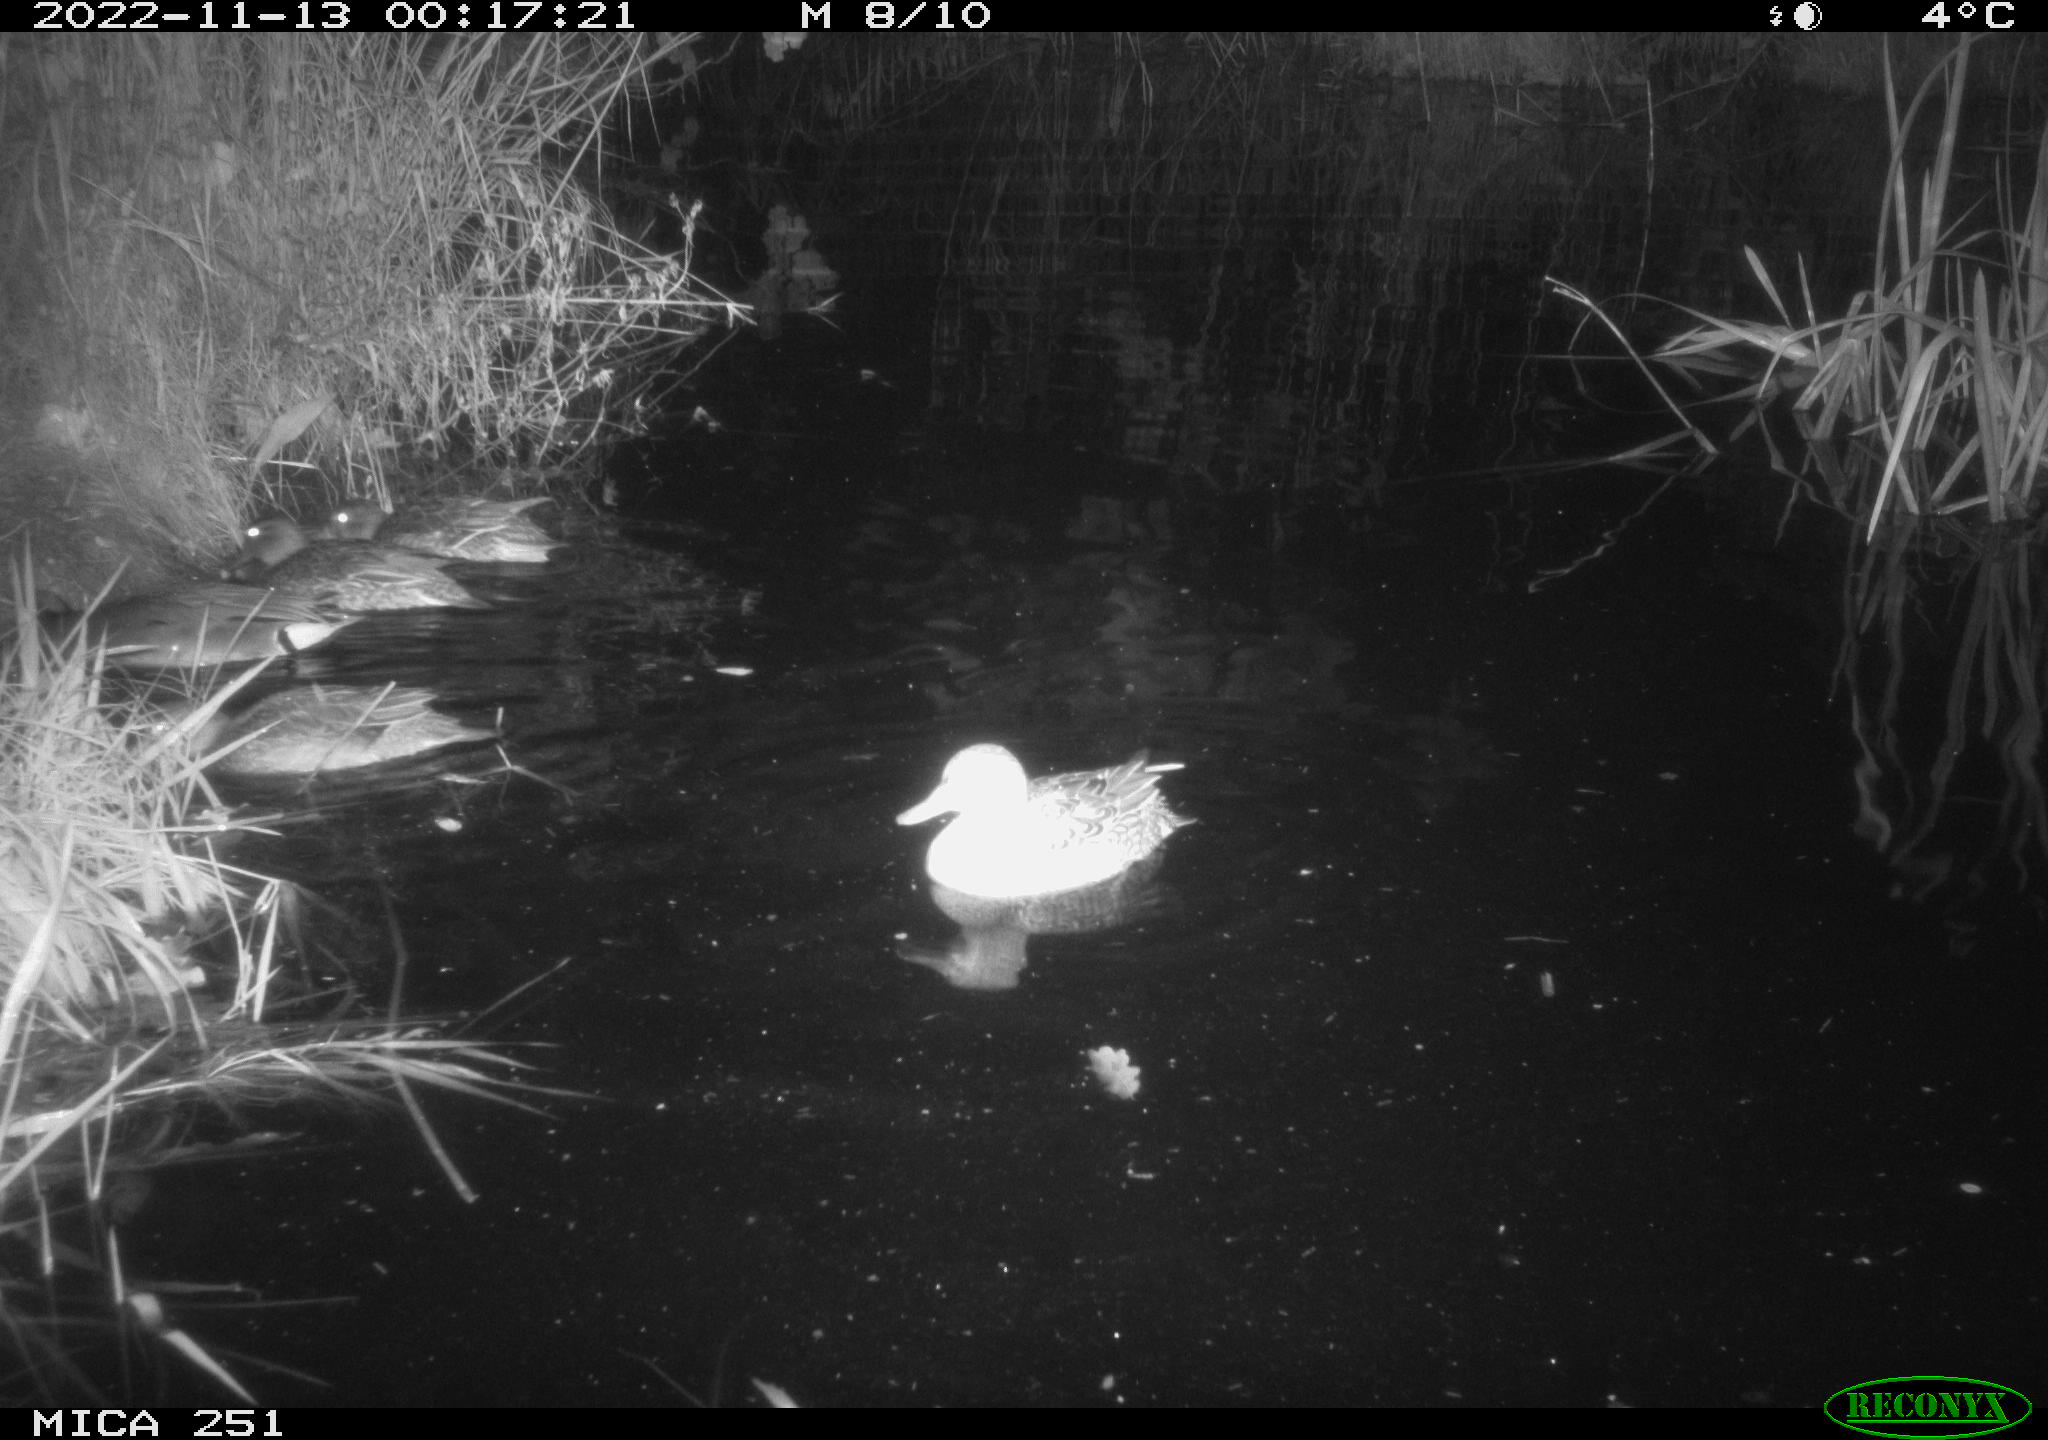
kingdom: Animalia
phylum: Chordata
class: Aves
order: Anseriformes
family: Anatidae
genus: Anas
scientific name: Anas
